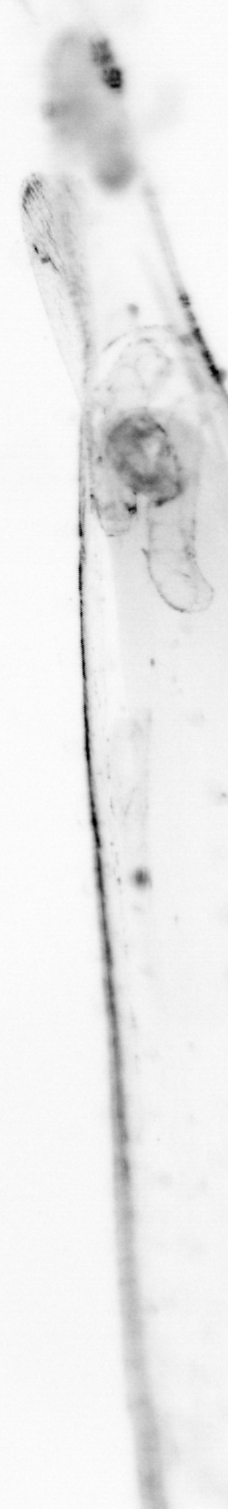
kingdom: Animalia
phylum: Chordata
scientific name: Chordata
